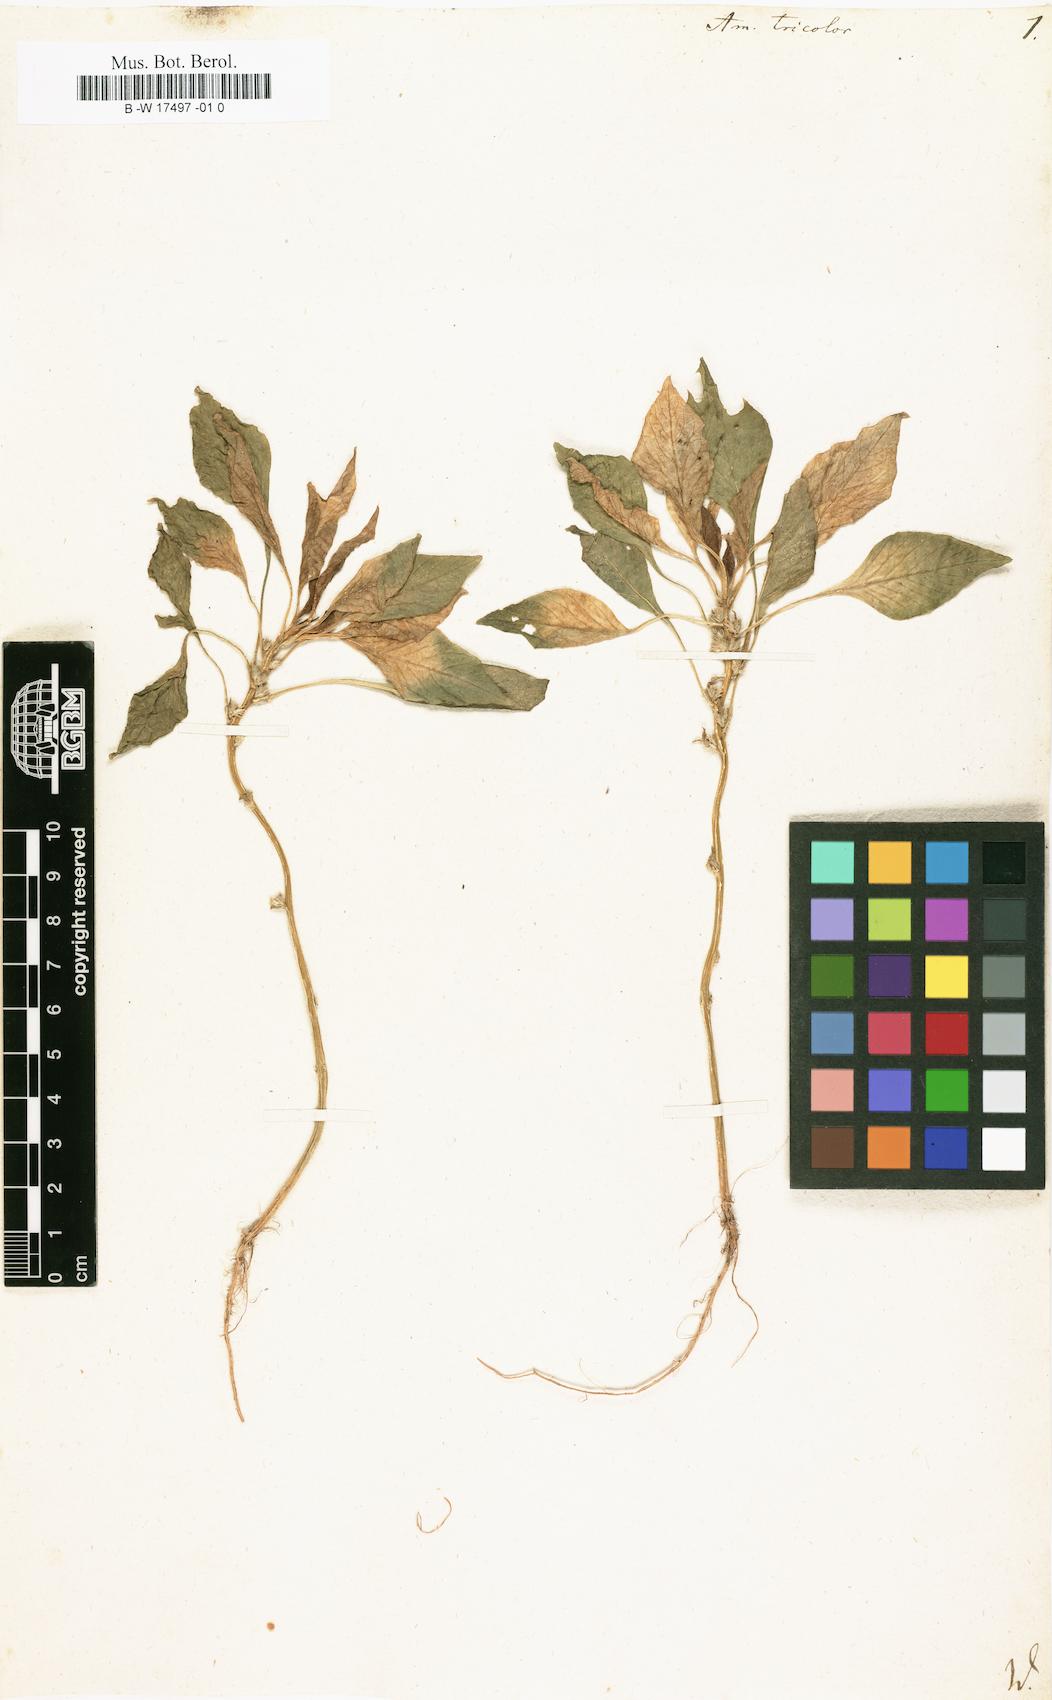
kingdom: Plantae
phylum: Tracheophyta
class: Magnoliopsida
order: Caryophyllales
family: Amaranthaceae
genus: Amaranthus
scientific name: Amaranthus tricolor
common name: Joseph's-coat
